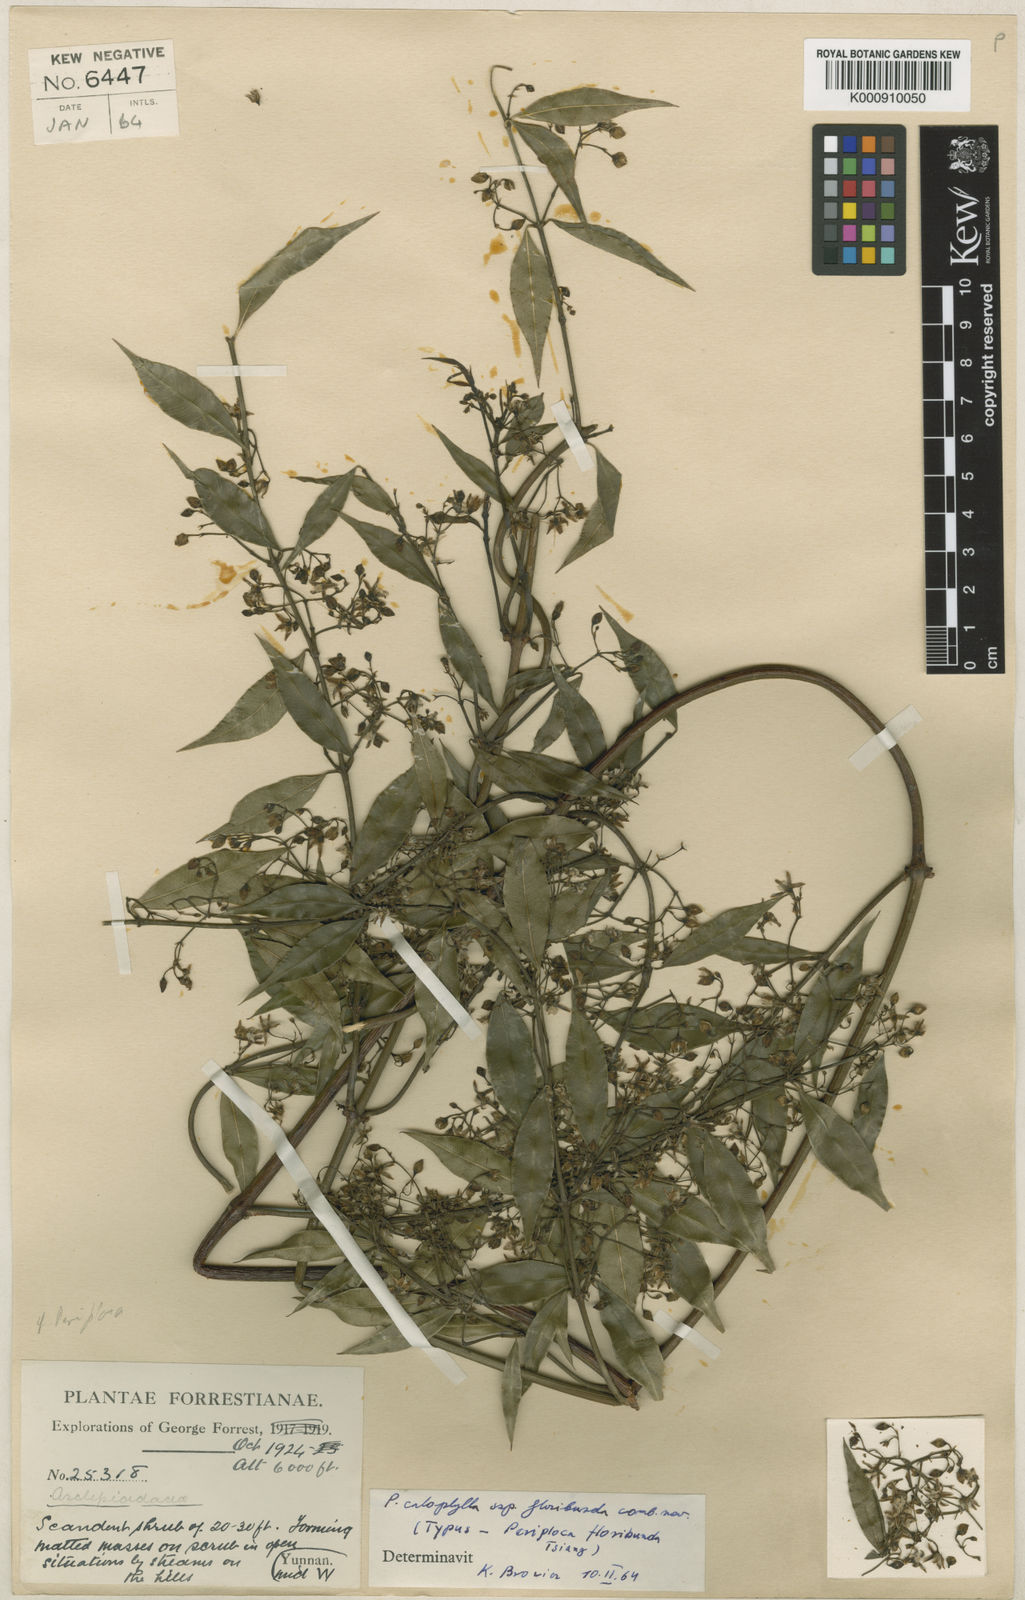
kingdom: Plantae
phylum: Tracheophyta
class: Magnoliopsida
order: Gentianales
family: Apocynaceae
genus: Periploca
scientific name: Periploca calophylla
